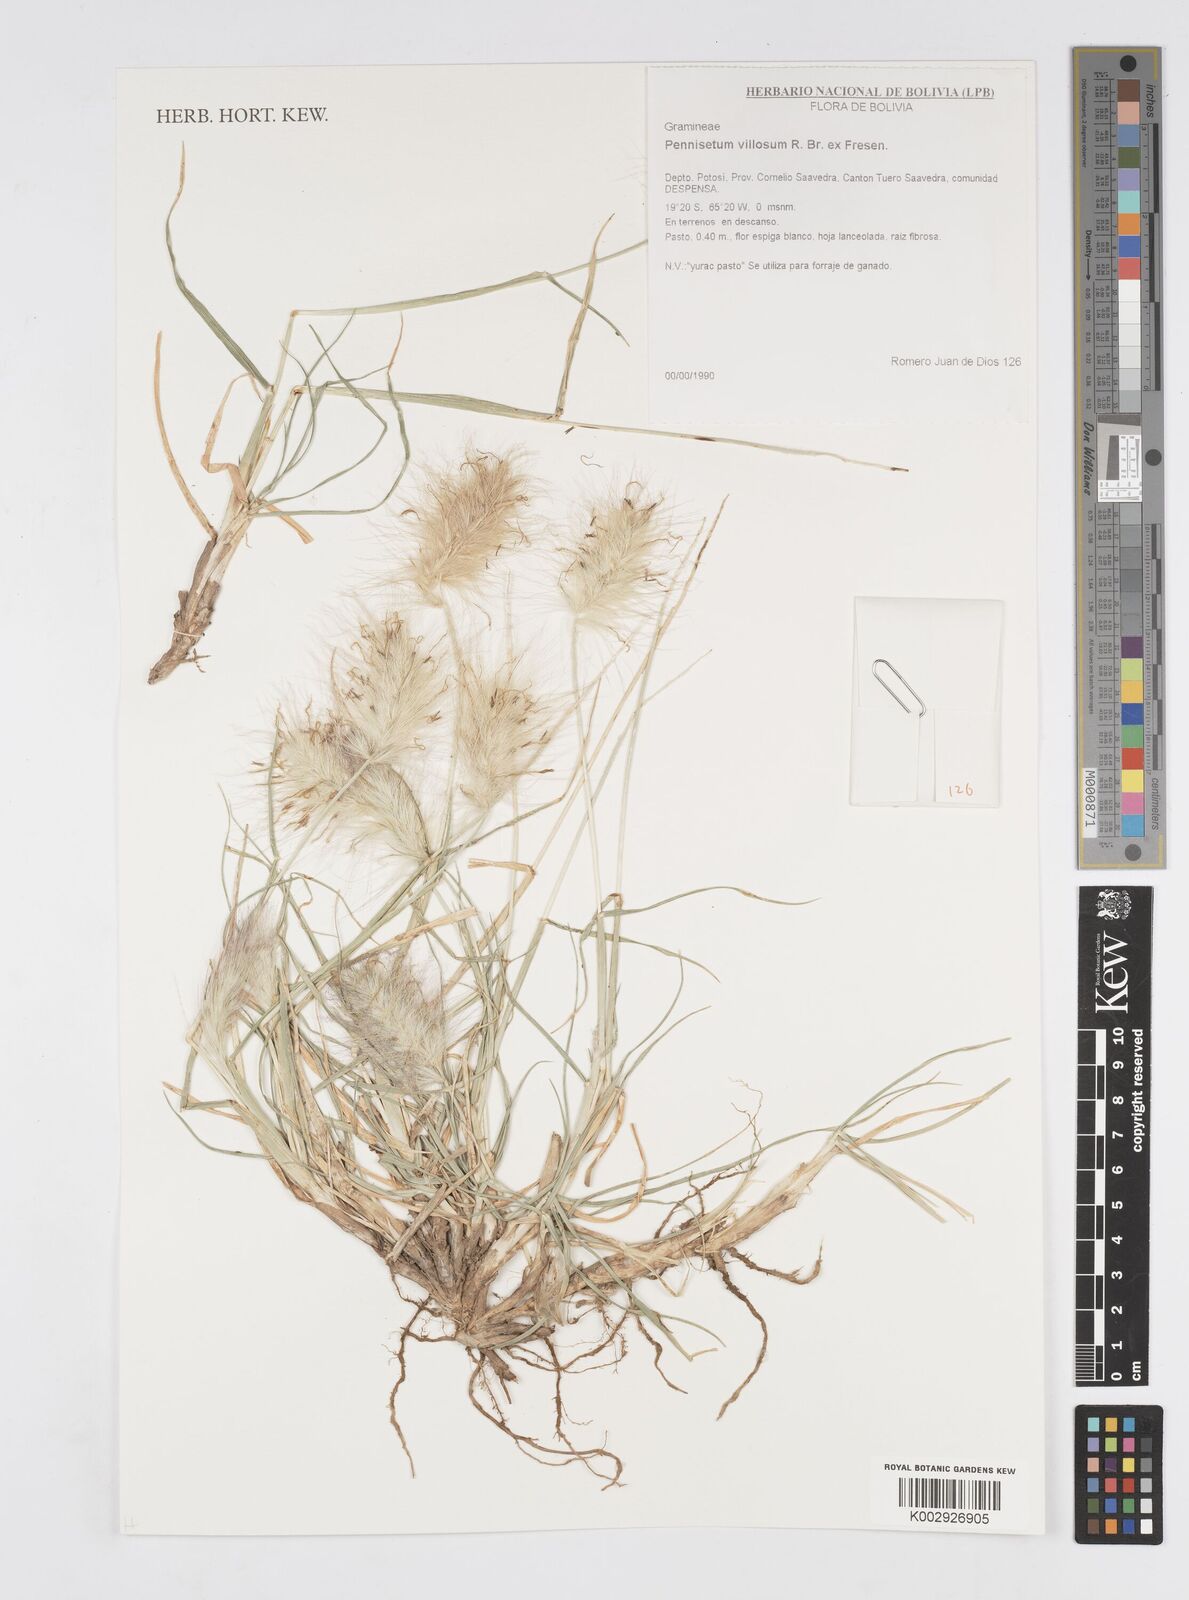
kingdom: Plantae
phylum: Tracheophyta
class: Liliopsida
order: Poales
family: Poaceae
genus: Cenchrus
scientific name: Cenchrus longisetus
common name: Feathertop
